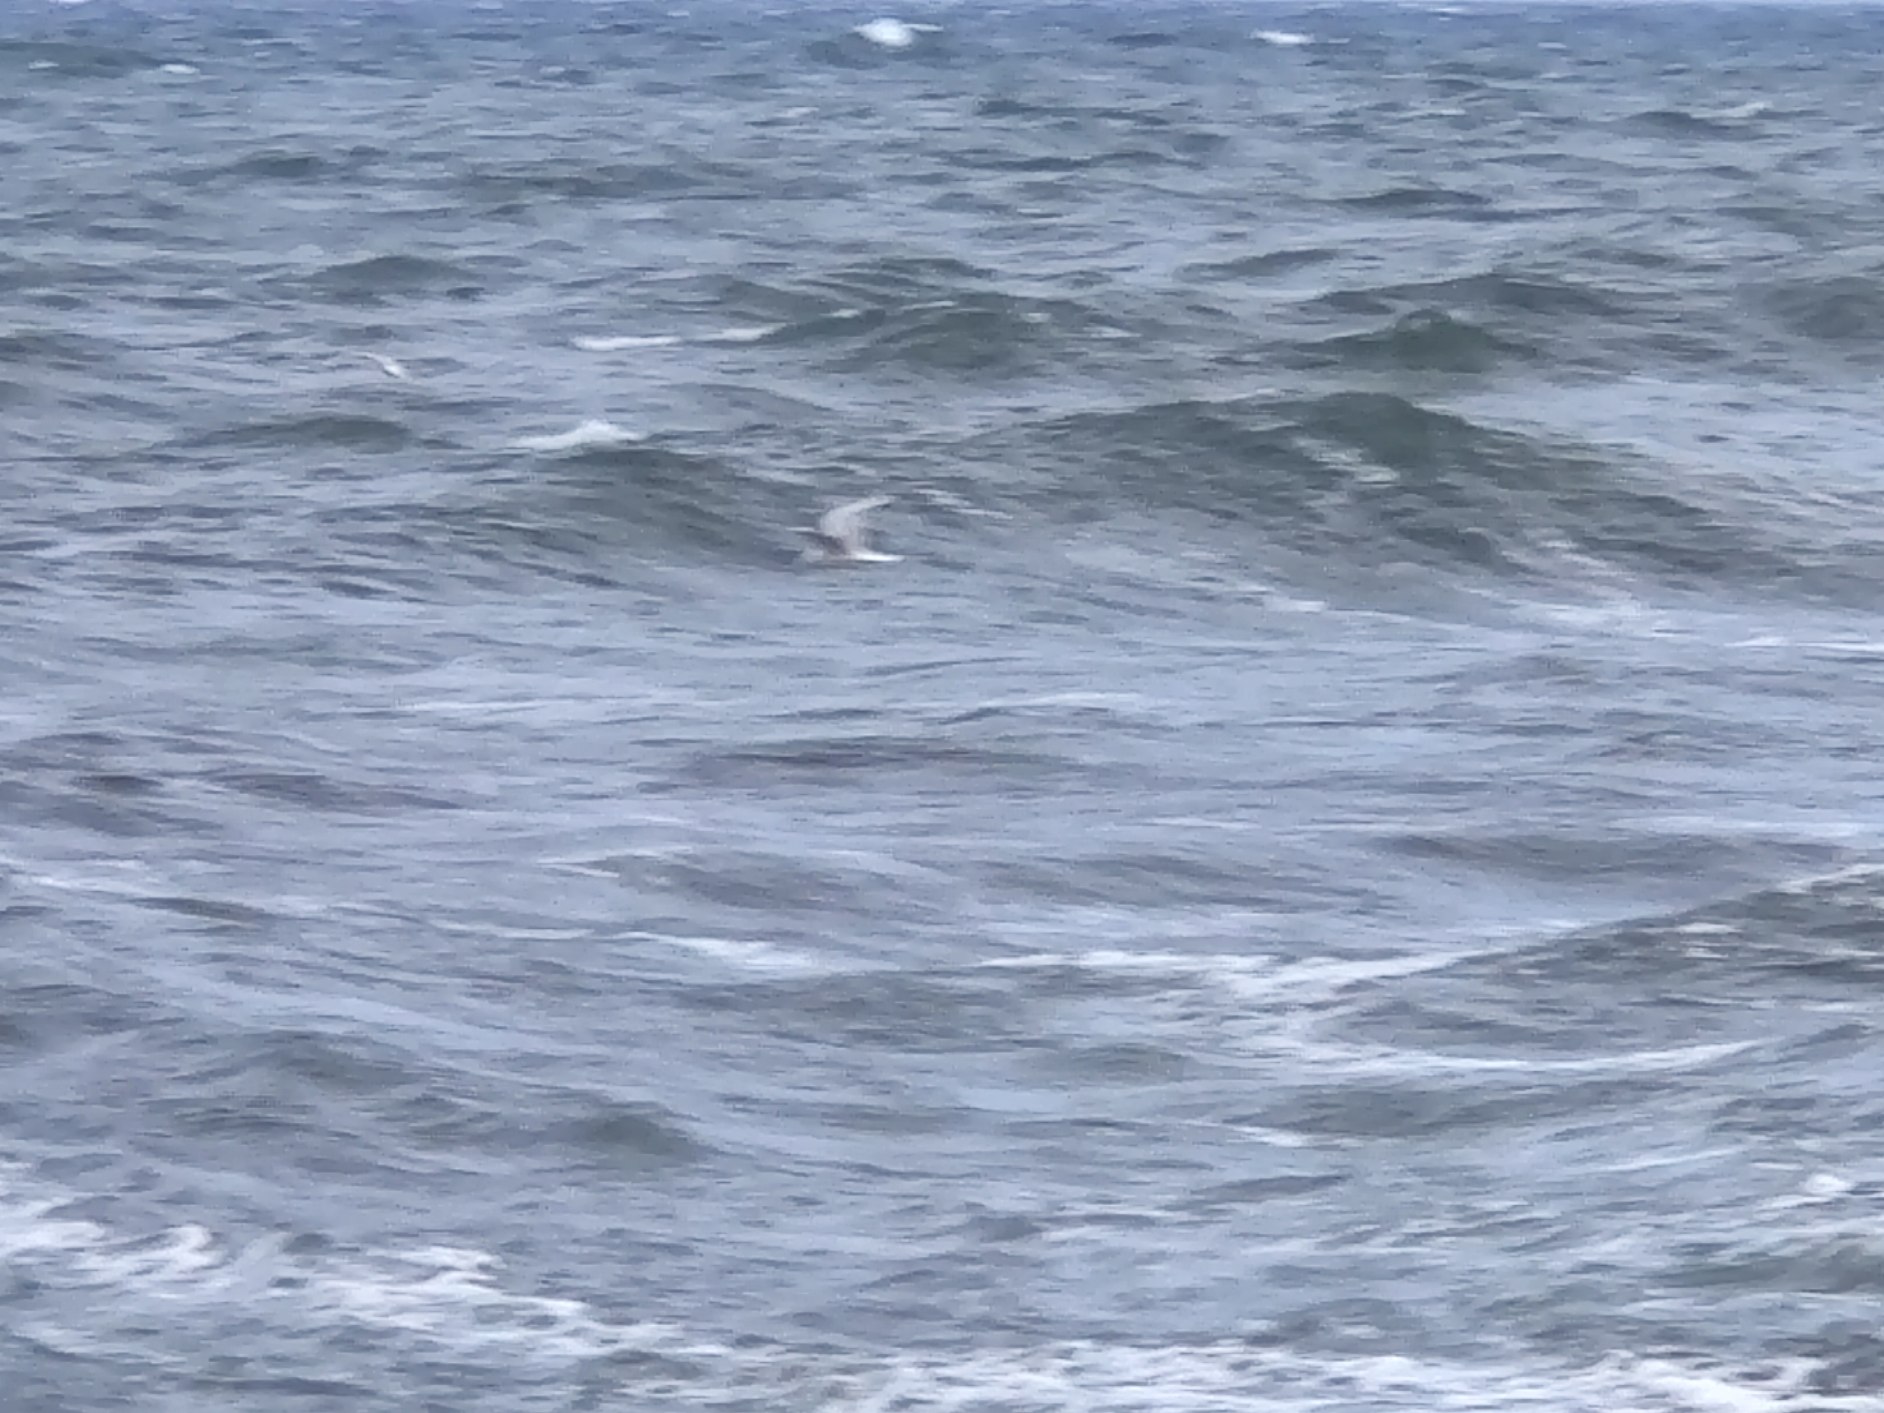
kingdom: Animalia
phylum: Chordata
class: Aves
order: Charadriiformes
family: Laridae
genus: Chroicocephalus
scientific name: Chroicocephalus ridibundus
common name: Hættemåge
